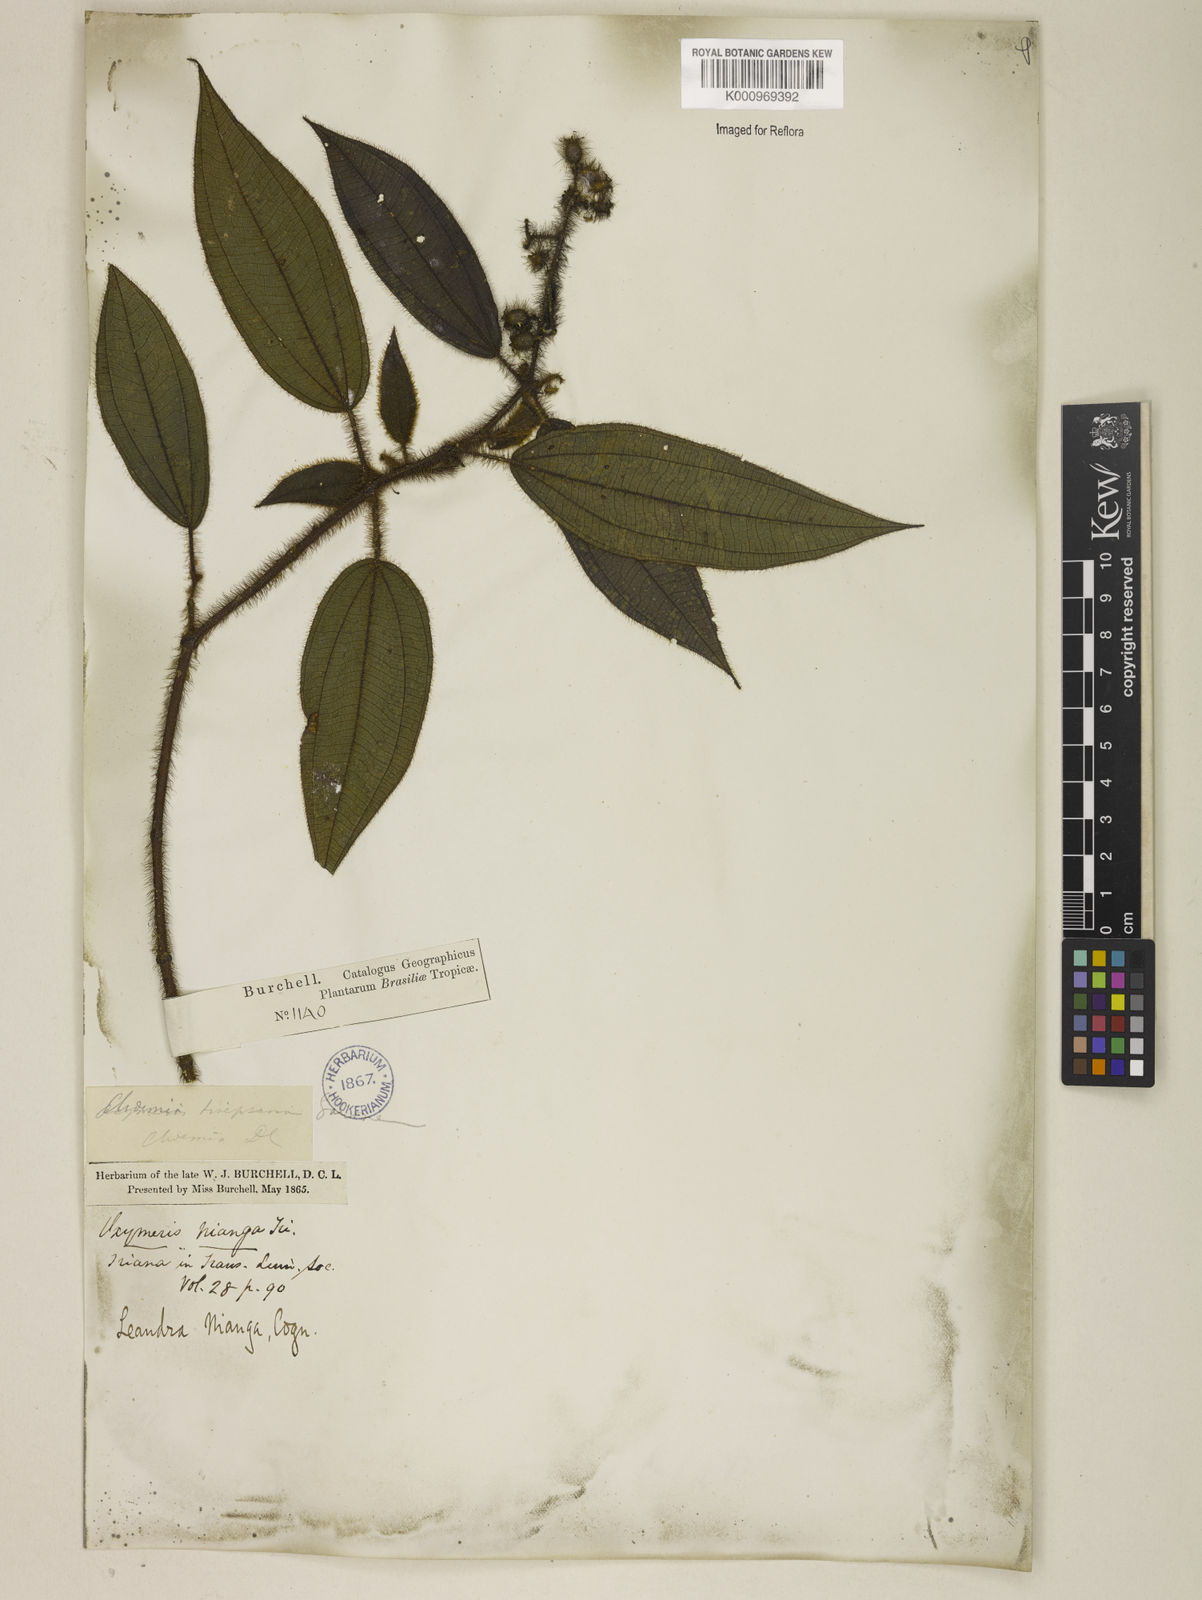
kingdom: Plantae
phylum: Tracheophyta
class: Magnoliopsida
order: Myrtales
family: Melastomataceae
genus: Miconia
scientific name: Miconia nianga
